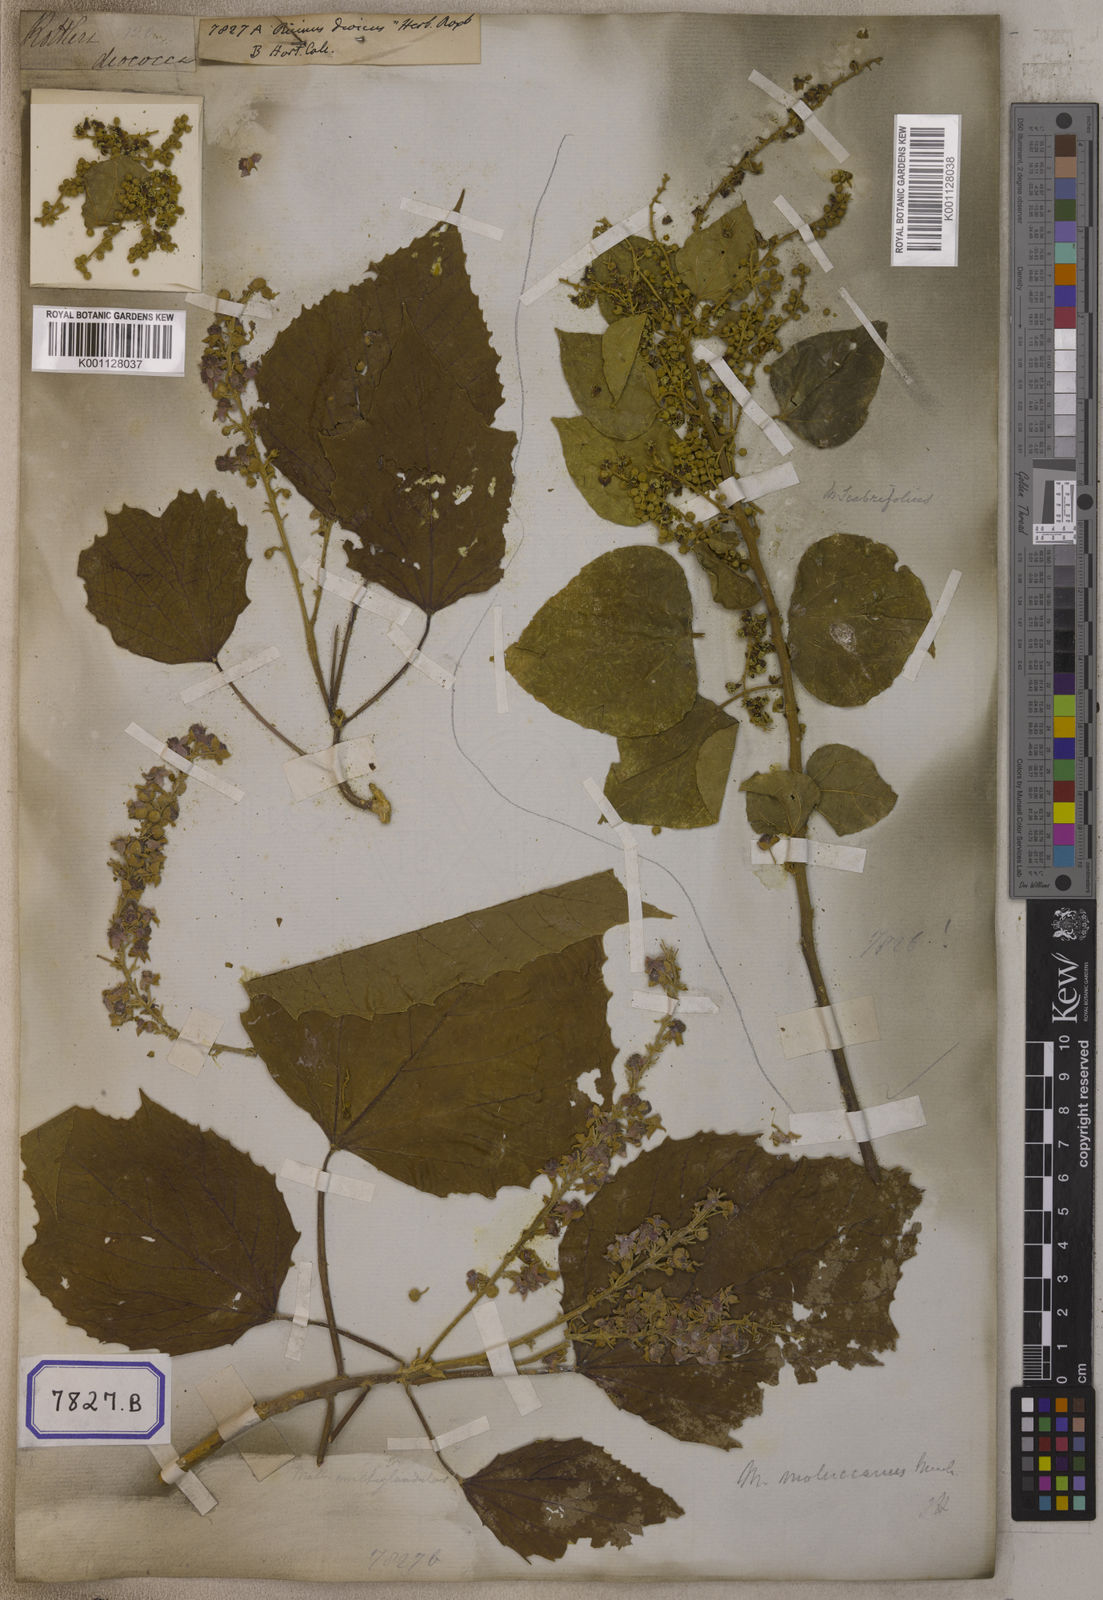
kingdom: Plantae
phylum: Tracheophyta
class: Magnoliopsida
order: Malpighiales
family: Euphorbiaceae
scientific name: Euphorbiaceae
